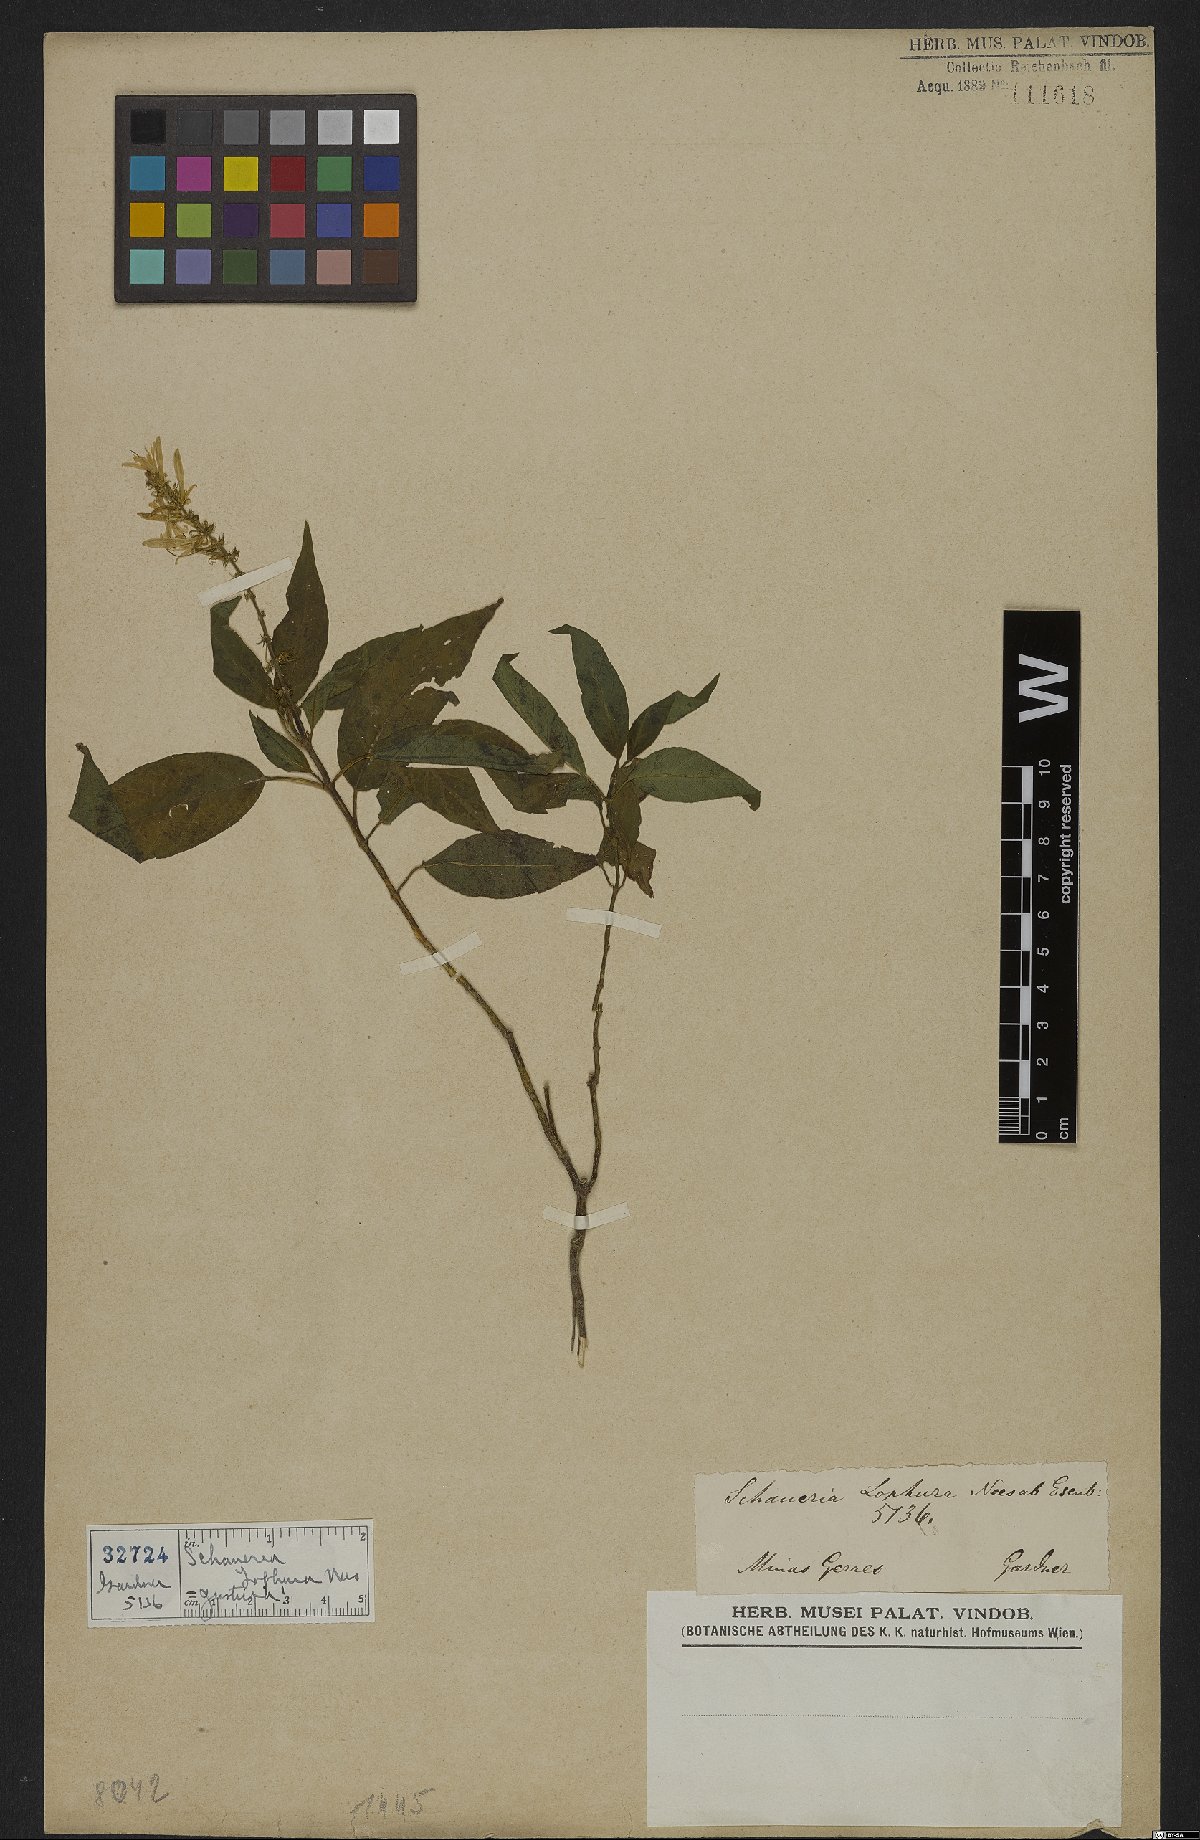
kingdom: Plantae
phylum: Tracheophyta
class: Magnoliopsida
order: Lamiales
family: Acanthaceae
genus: Schaueria
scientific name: Schaueria litoralis
